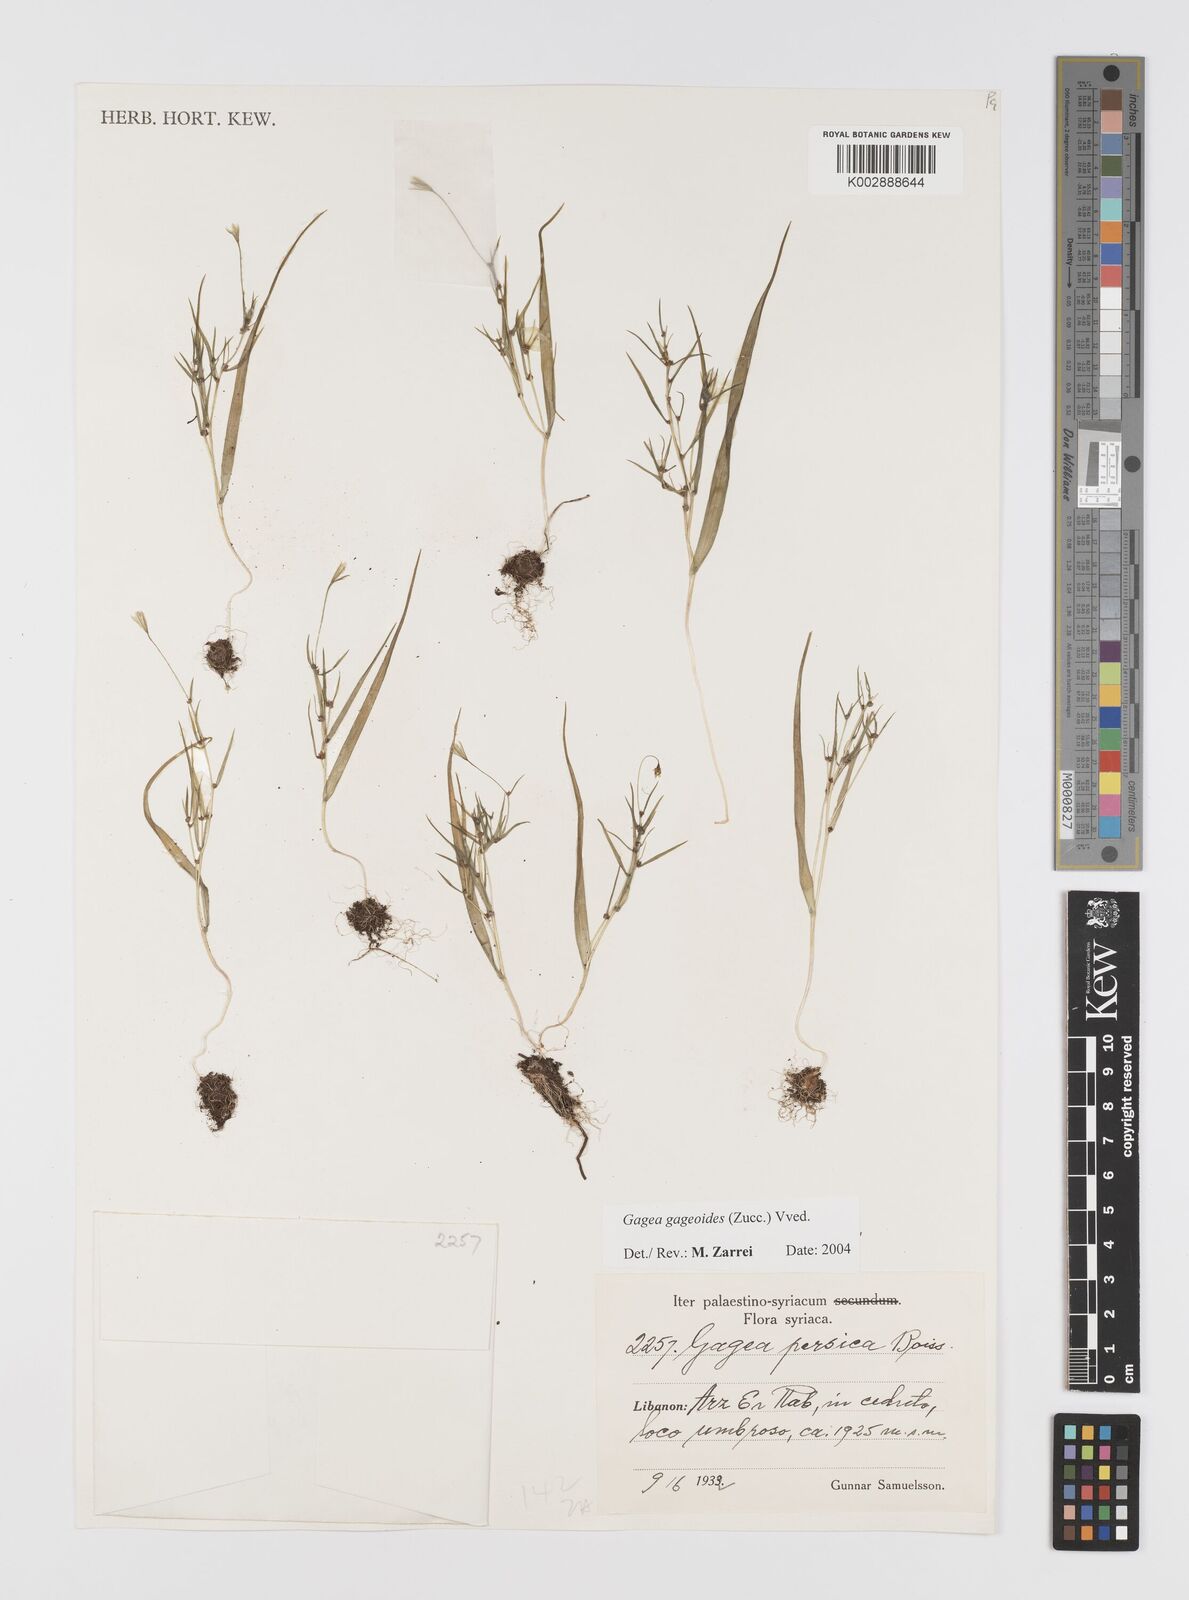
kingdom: Plantae
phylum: Tracheophyta
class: Liliopsida
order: Liliales
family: Liliaceae
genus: Gagea
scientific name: Gagea gageoides
